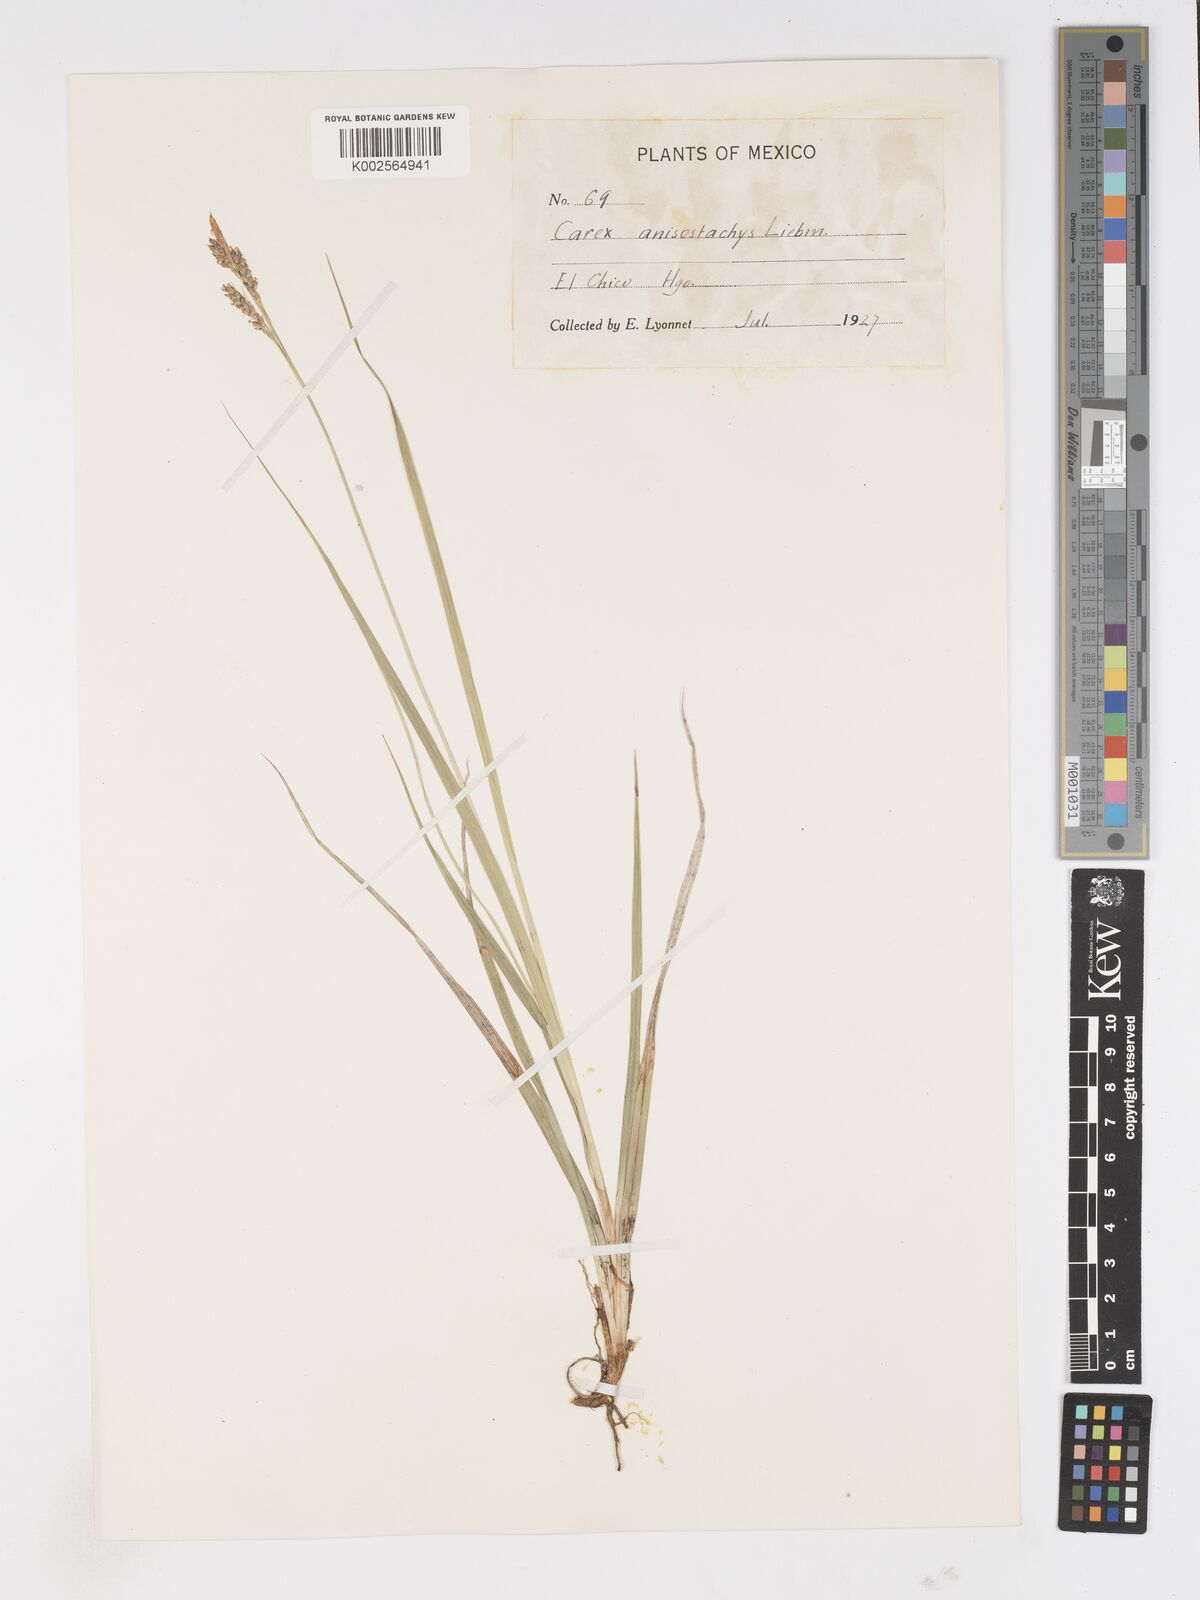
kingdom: Plantae
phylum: Tracheophyta
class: Liliopsida
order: Poales
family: Cyperaceae
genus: Carex
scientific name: Carex anisostachys
